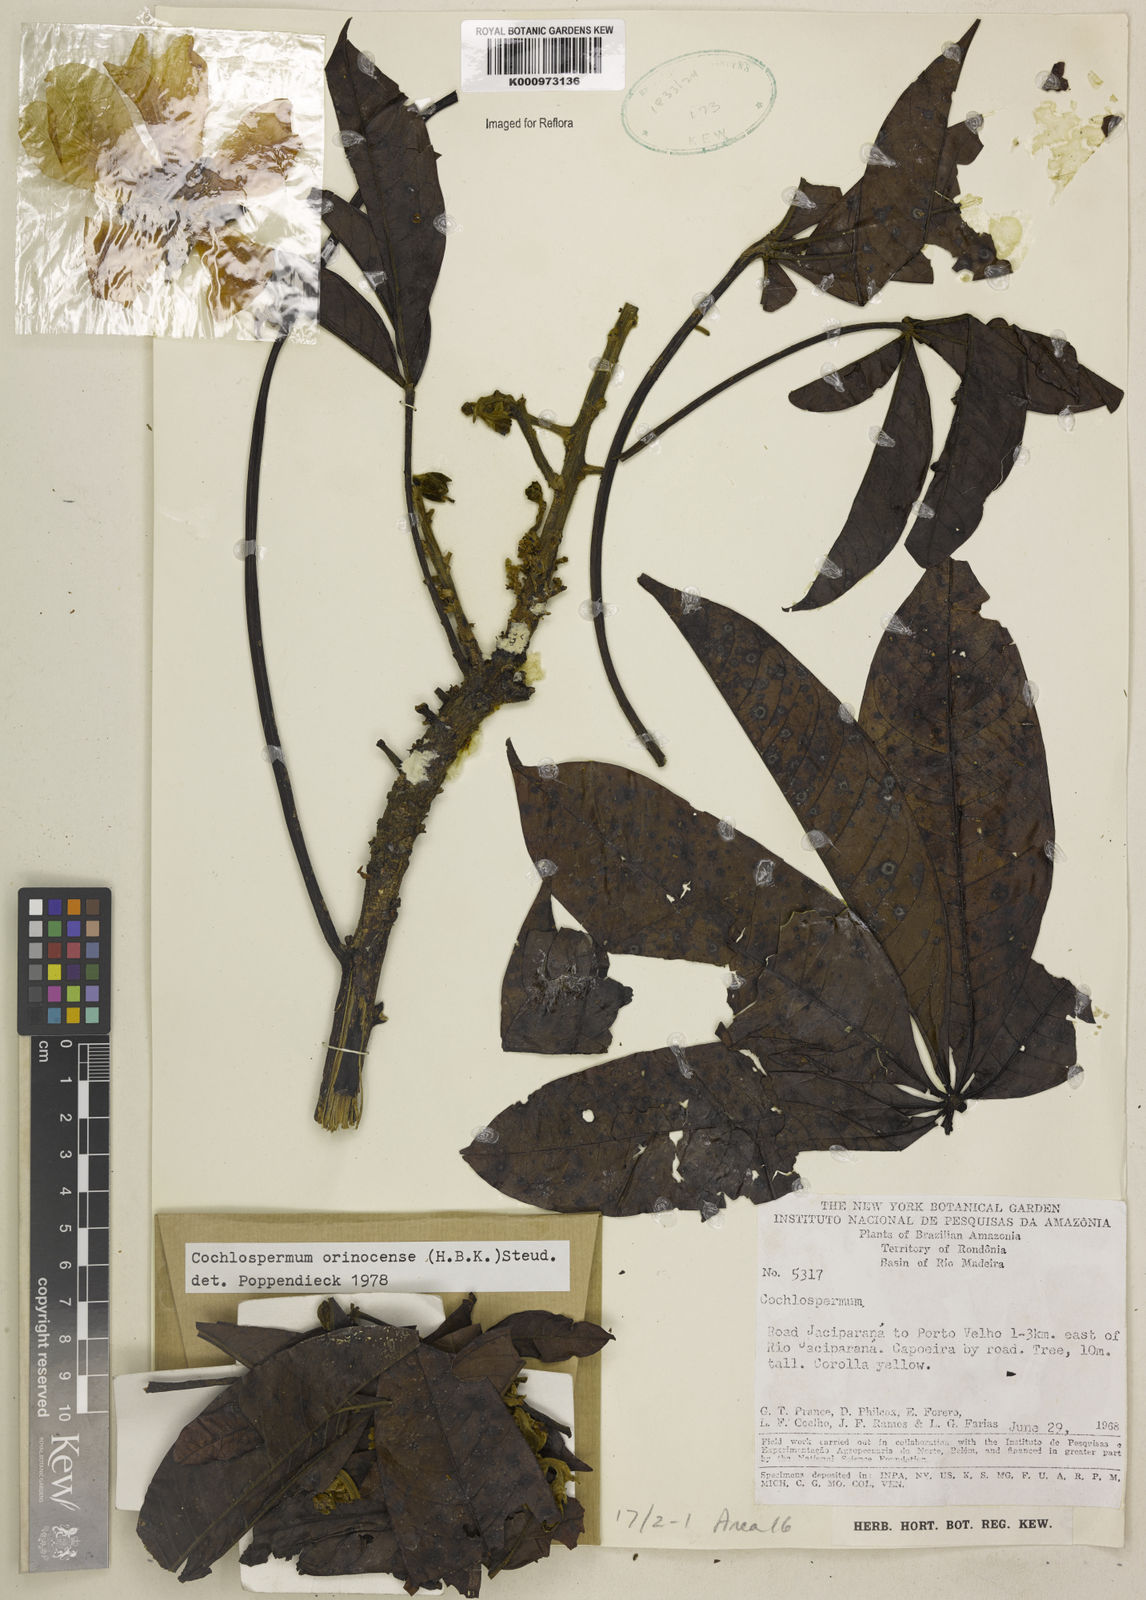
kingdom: Plantae
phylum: Tracheophyta
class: Magnoliopsida
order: Malvales
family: Cochlospermaceae
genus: Cochlospermum
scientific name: Cochlospermum orinocense
